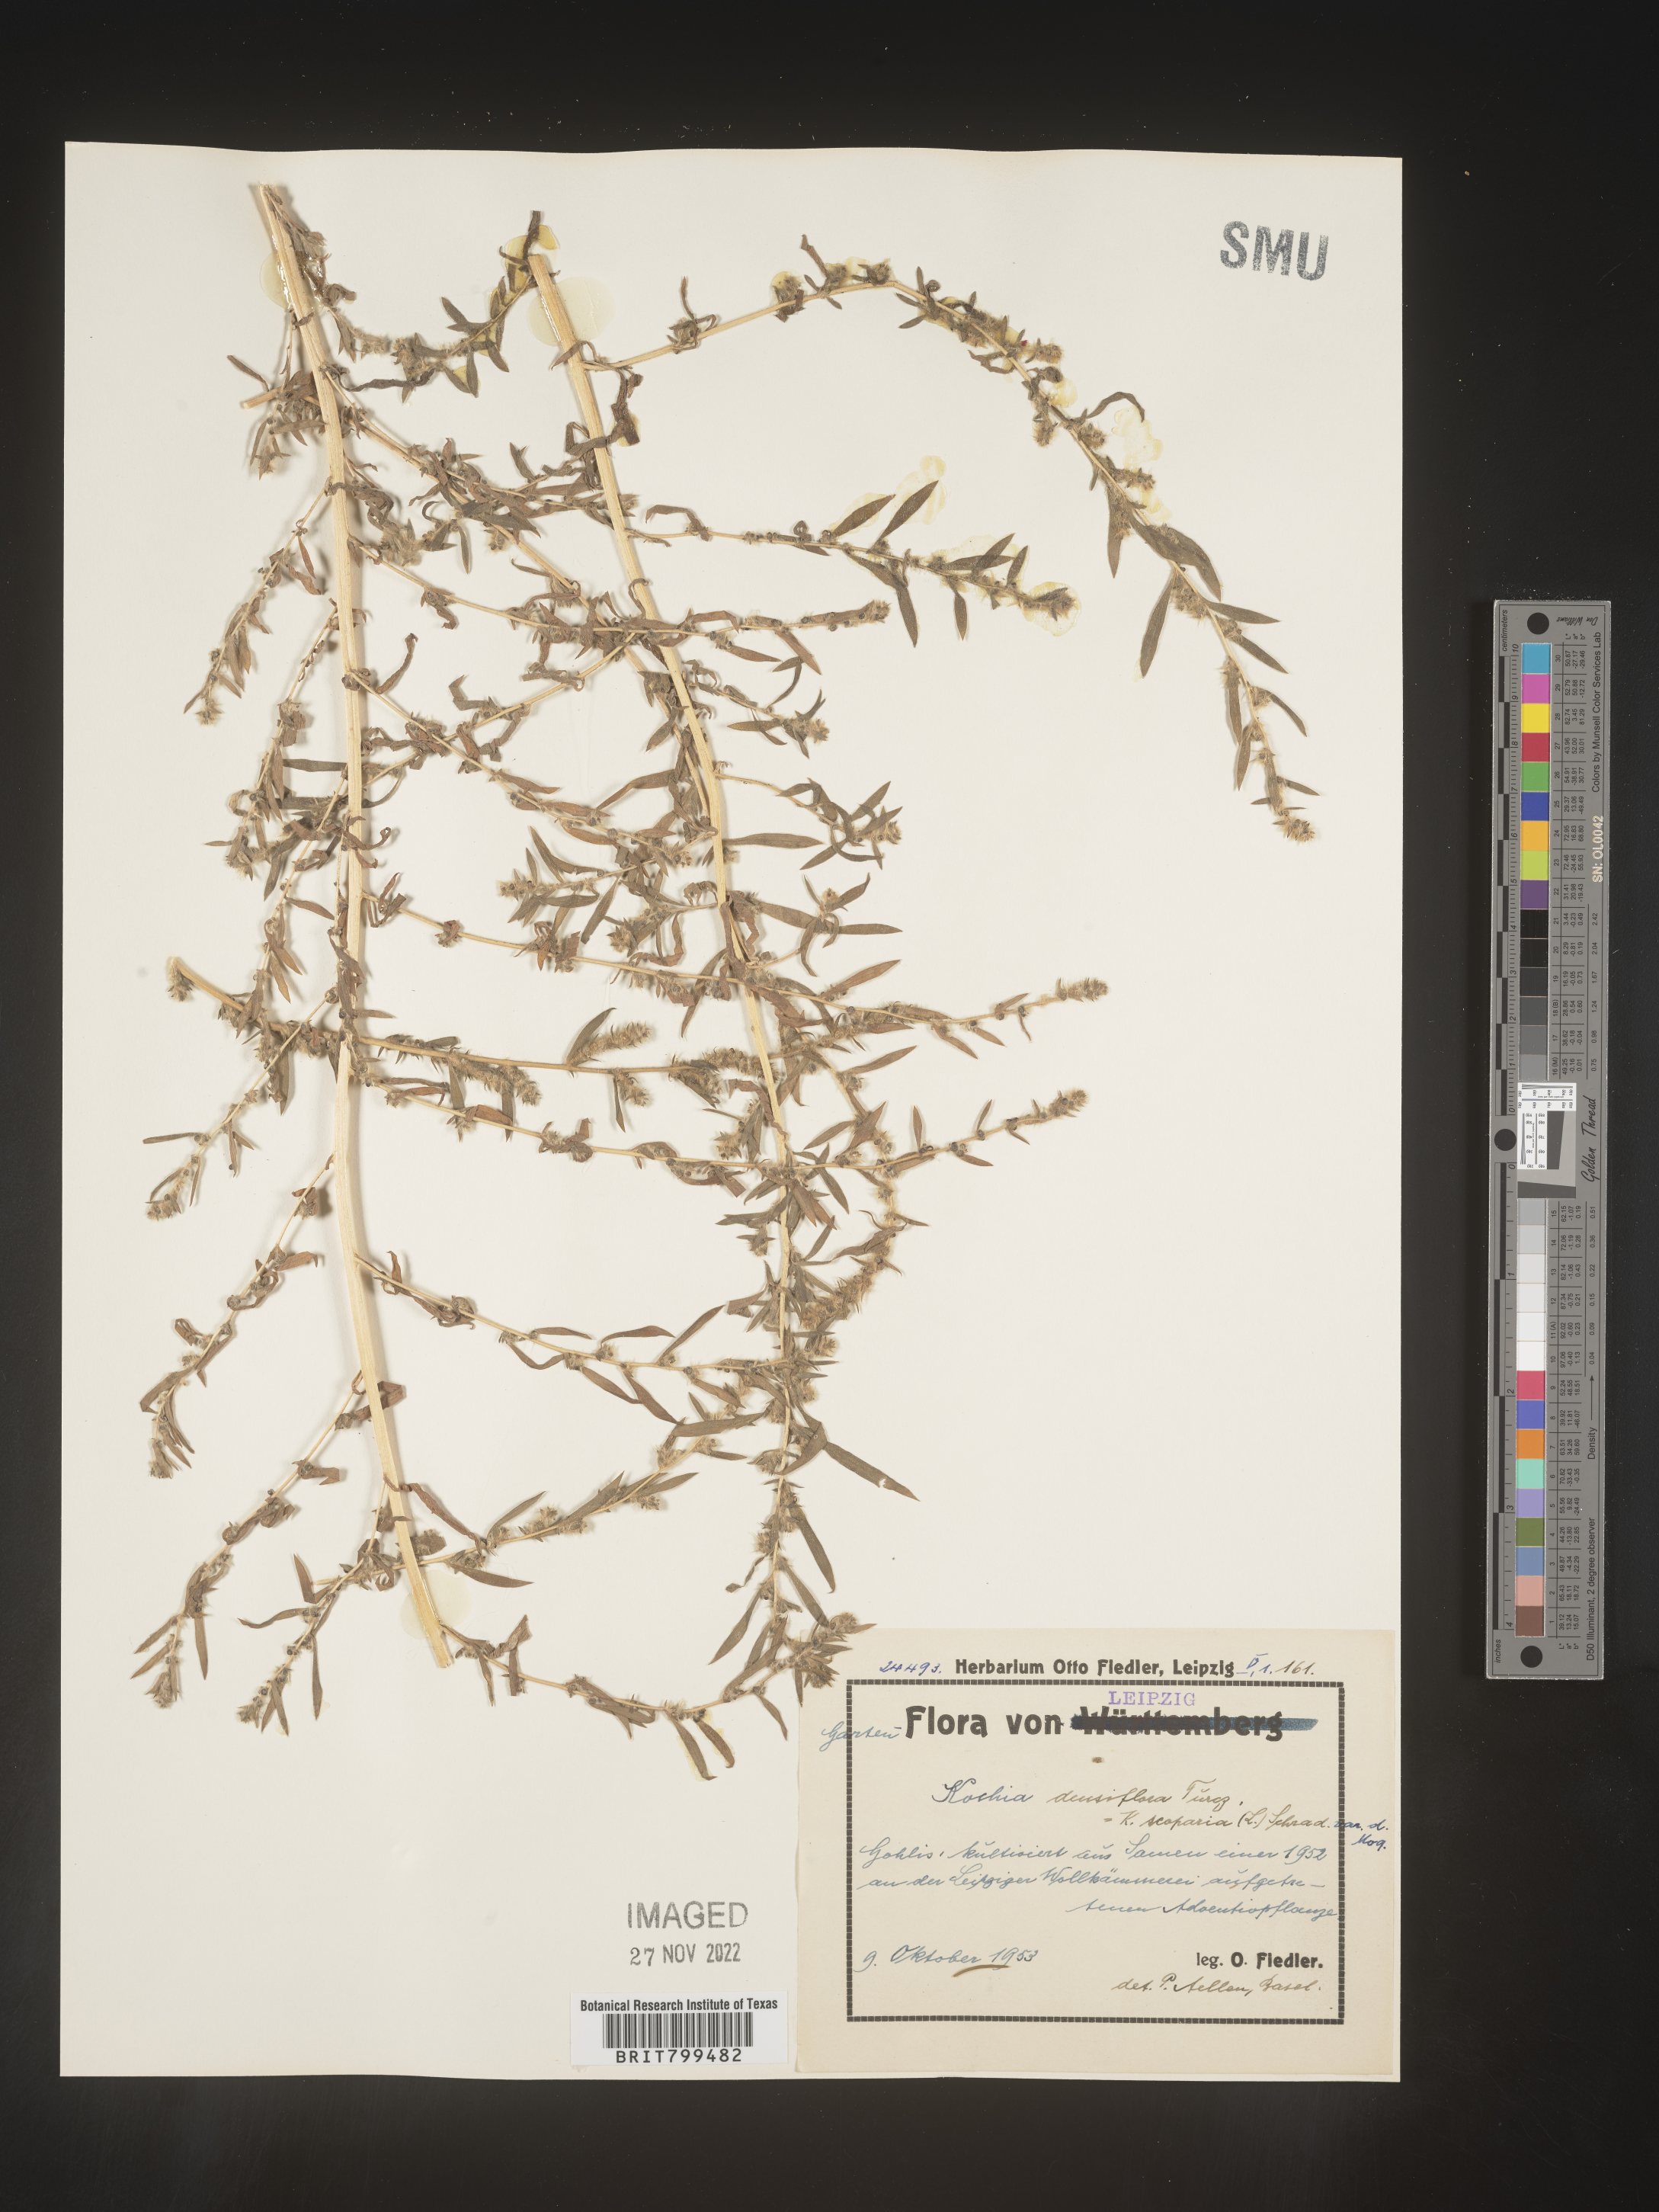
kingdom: Plantae
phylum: Tracheophyta
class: Magnoliopsida
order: Caryophyllales
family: Amaranthaceae
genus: Bassia
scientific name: Bassia
